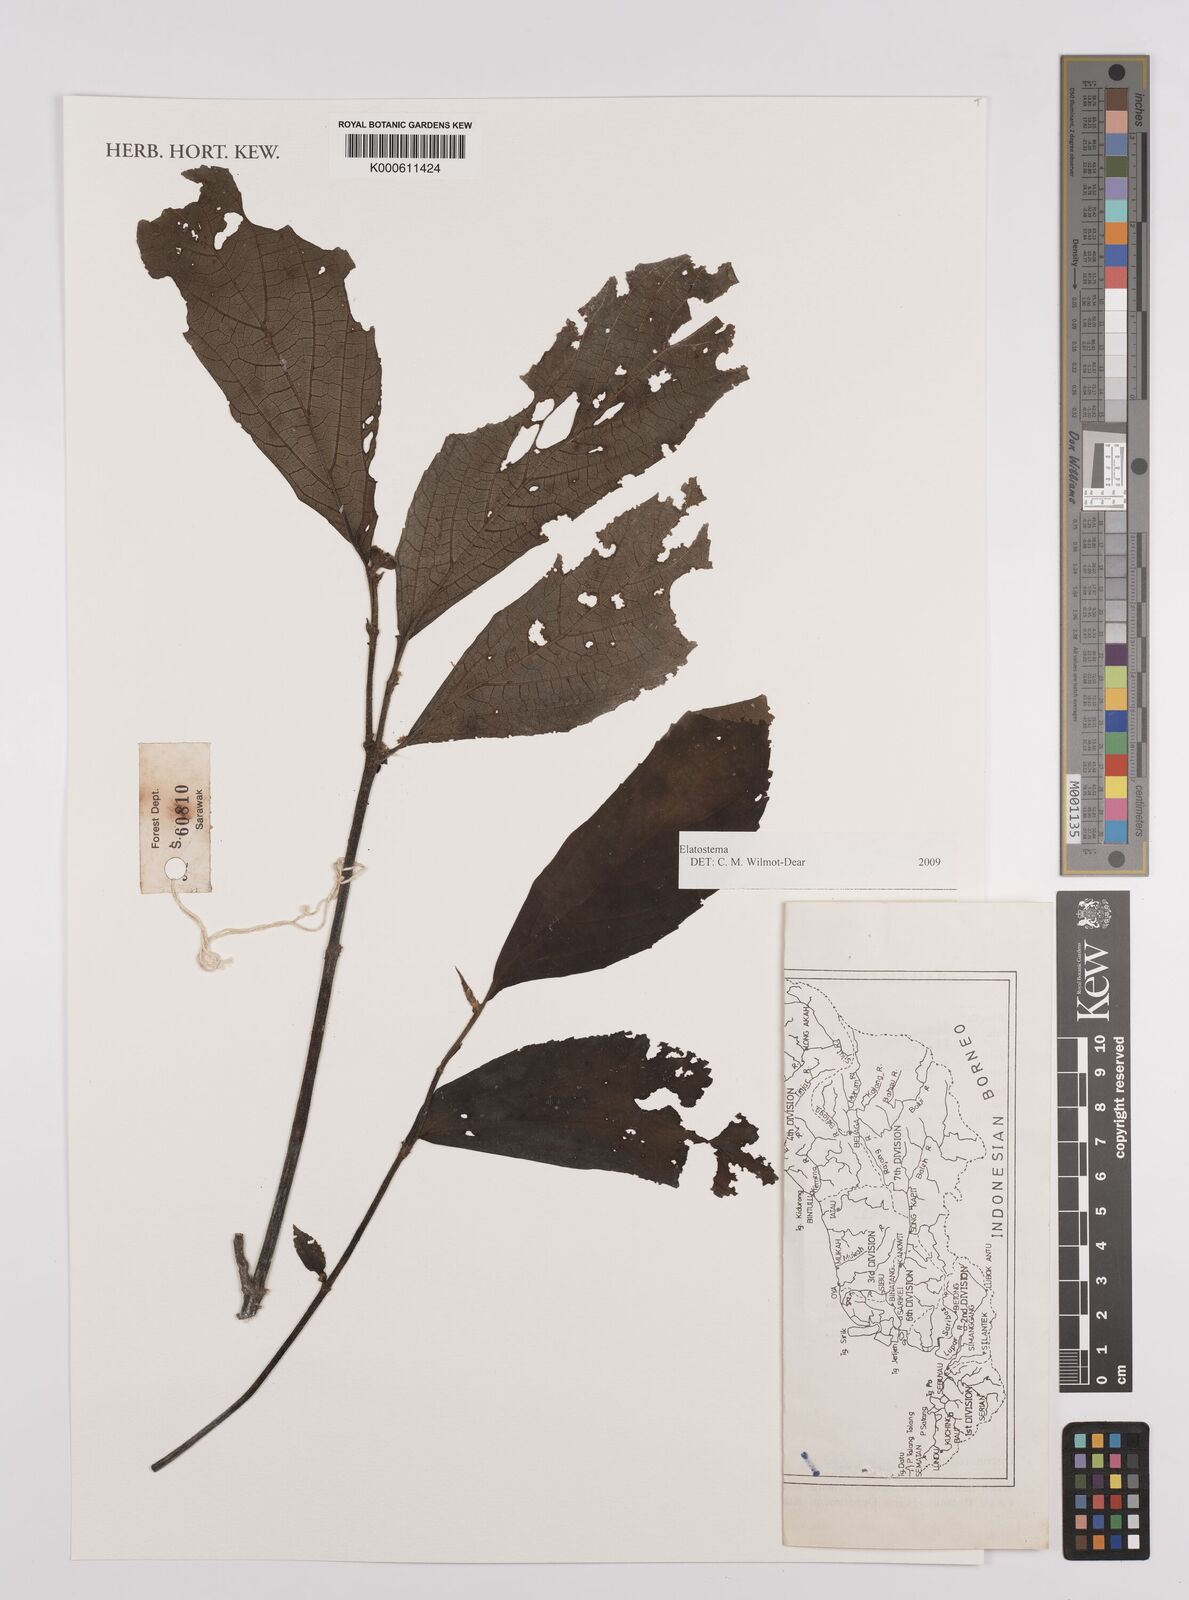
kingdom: Plantae
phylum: Tracheophyta
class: Magnoliopsida
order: Rosales
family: Urticaceae
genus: Elatostema
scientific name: Elatostema
